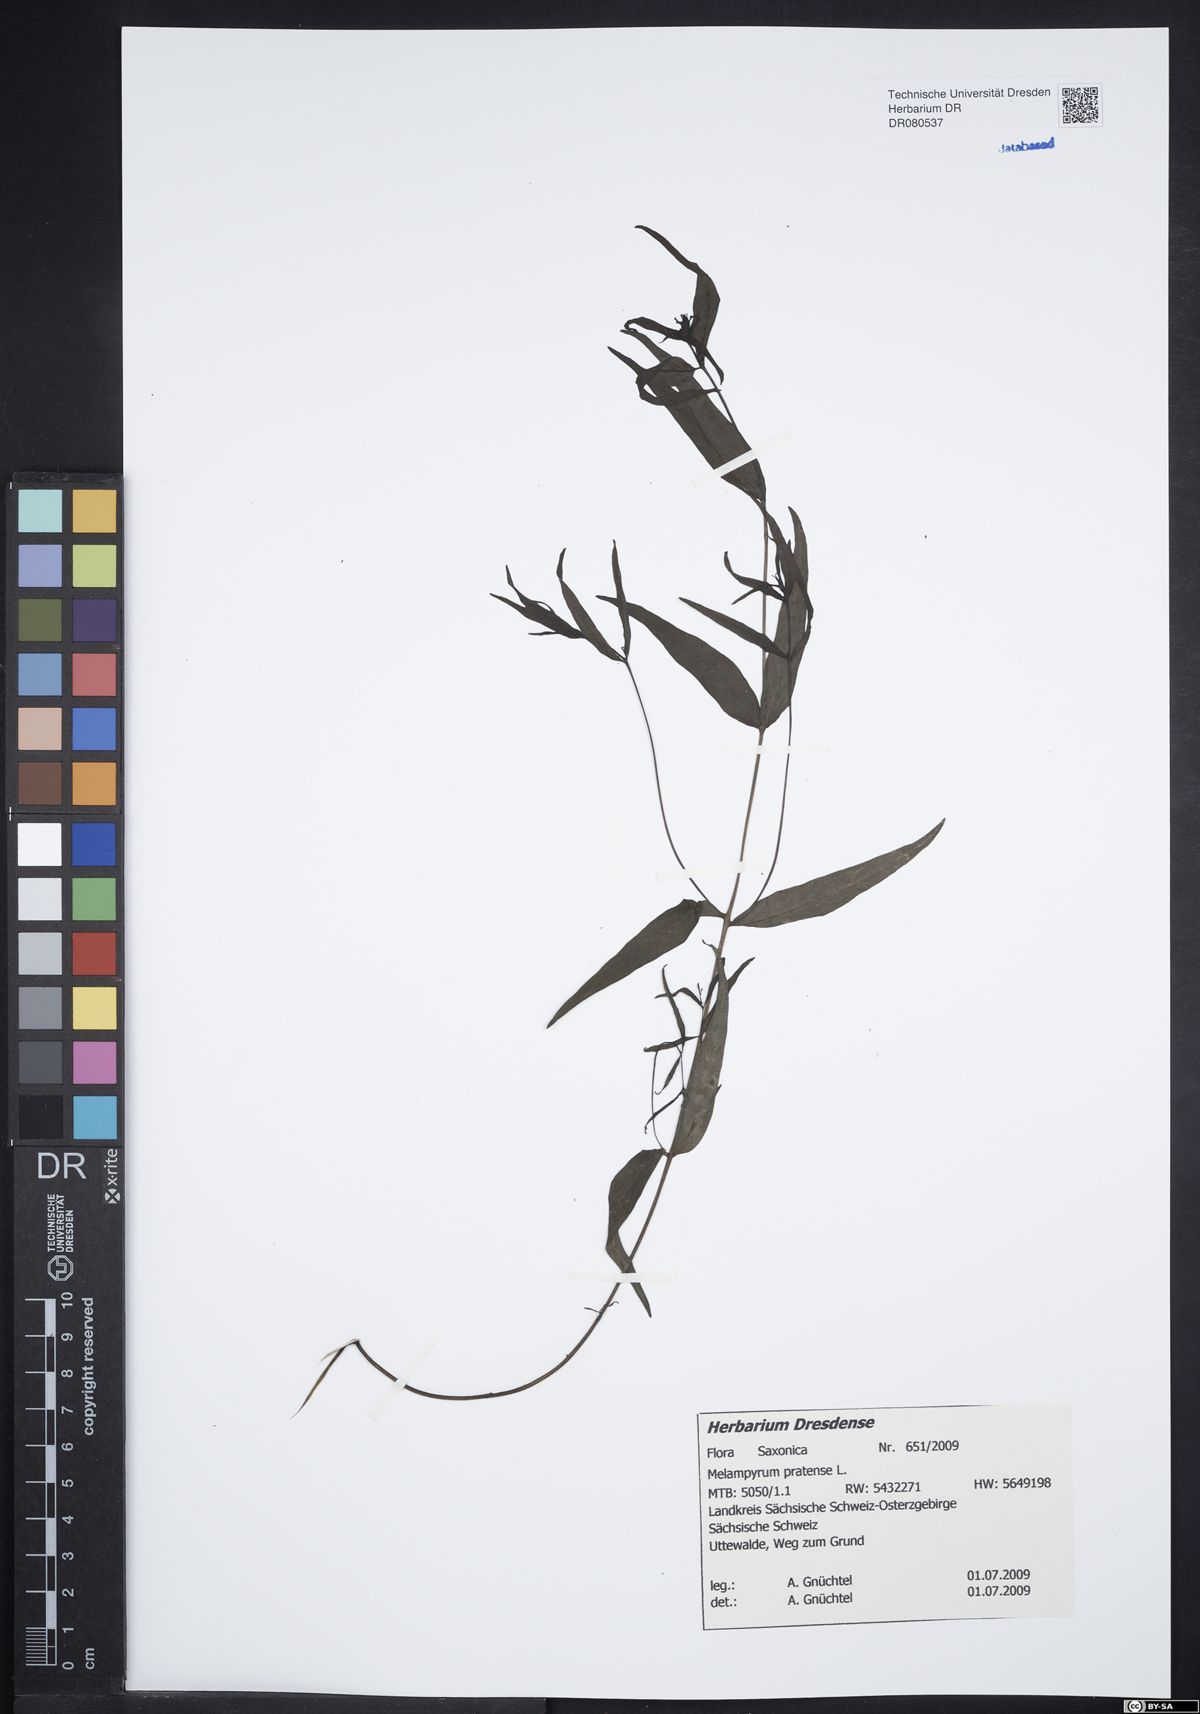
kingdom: Plantae
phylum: Tracheophyta
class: Magnoliopsida
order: Lamiales
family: Orobanchaceae
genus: Melampyrum
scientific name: Melampyrum pratense
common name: Common cow-wheat
